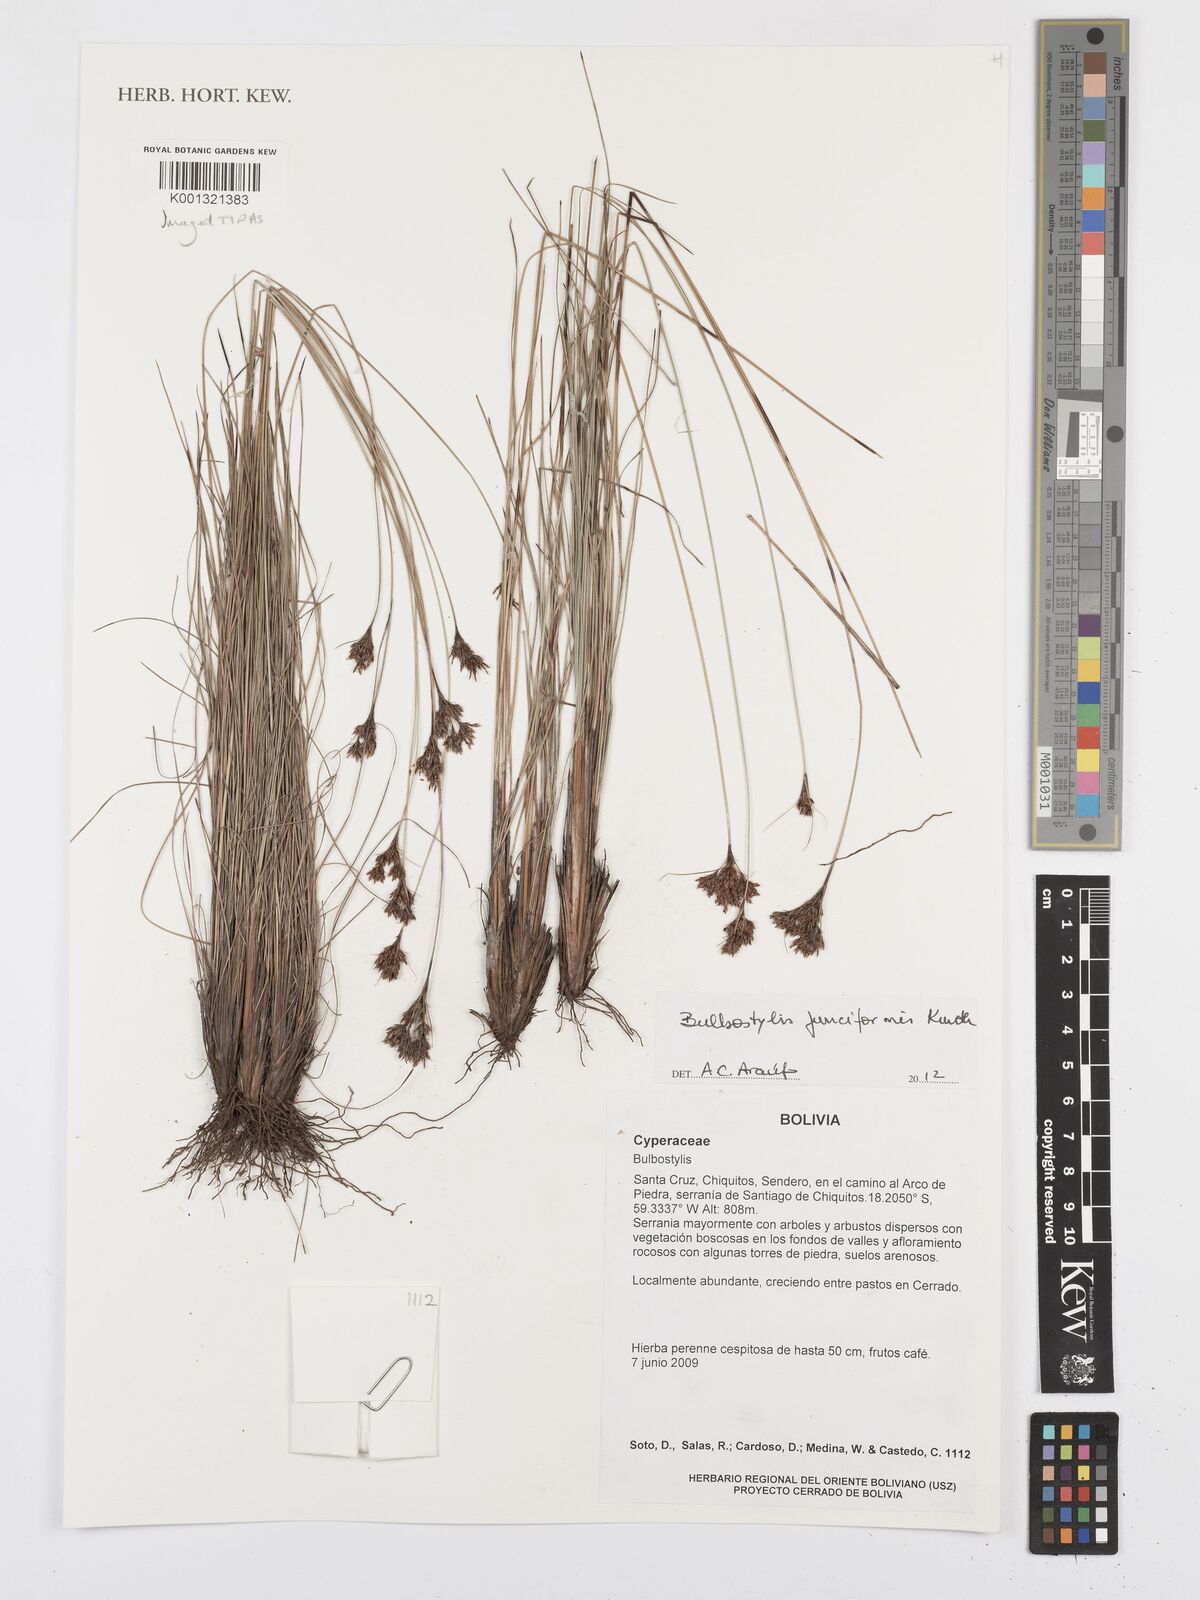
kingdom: Plantae
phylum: Tracheophyta
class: Liliopsida
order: Poales
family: Cyperaceae
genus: Bulbostylis
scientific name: Bulbostylis junciformis
